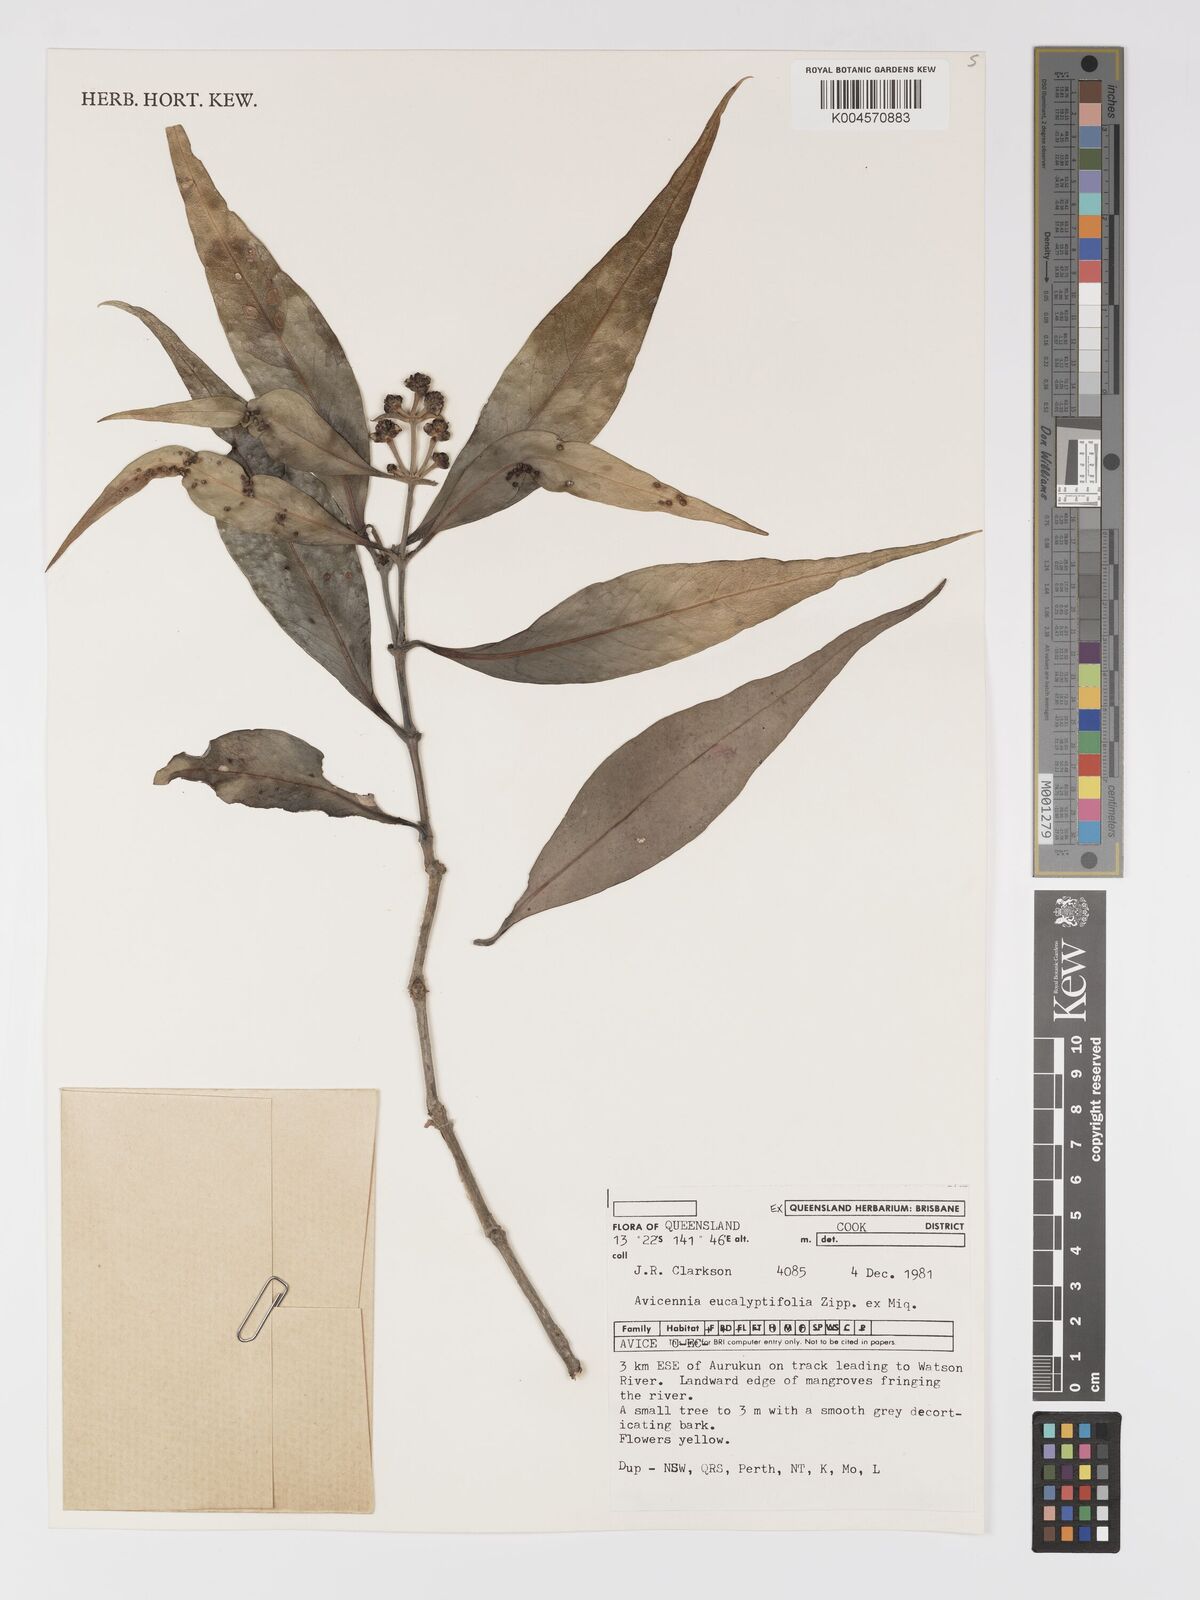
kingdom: Plantae
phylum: Tracheophyta
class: Magnoliopsida
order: Lamiales
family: Acanthaceae
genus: Avicennia
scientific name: Avicennia marina
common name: Gray mangrove
